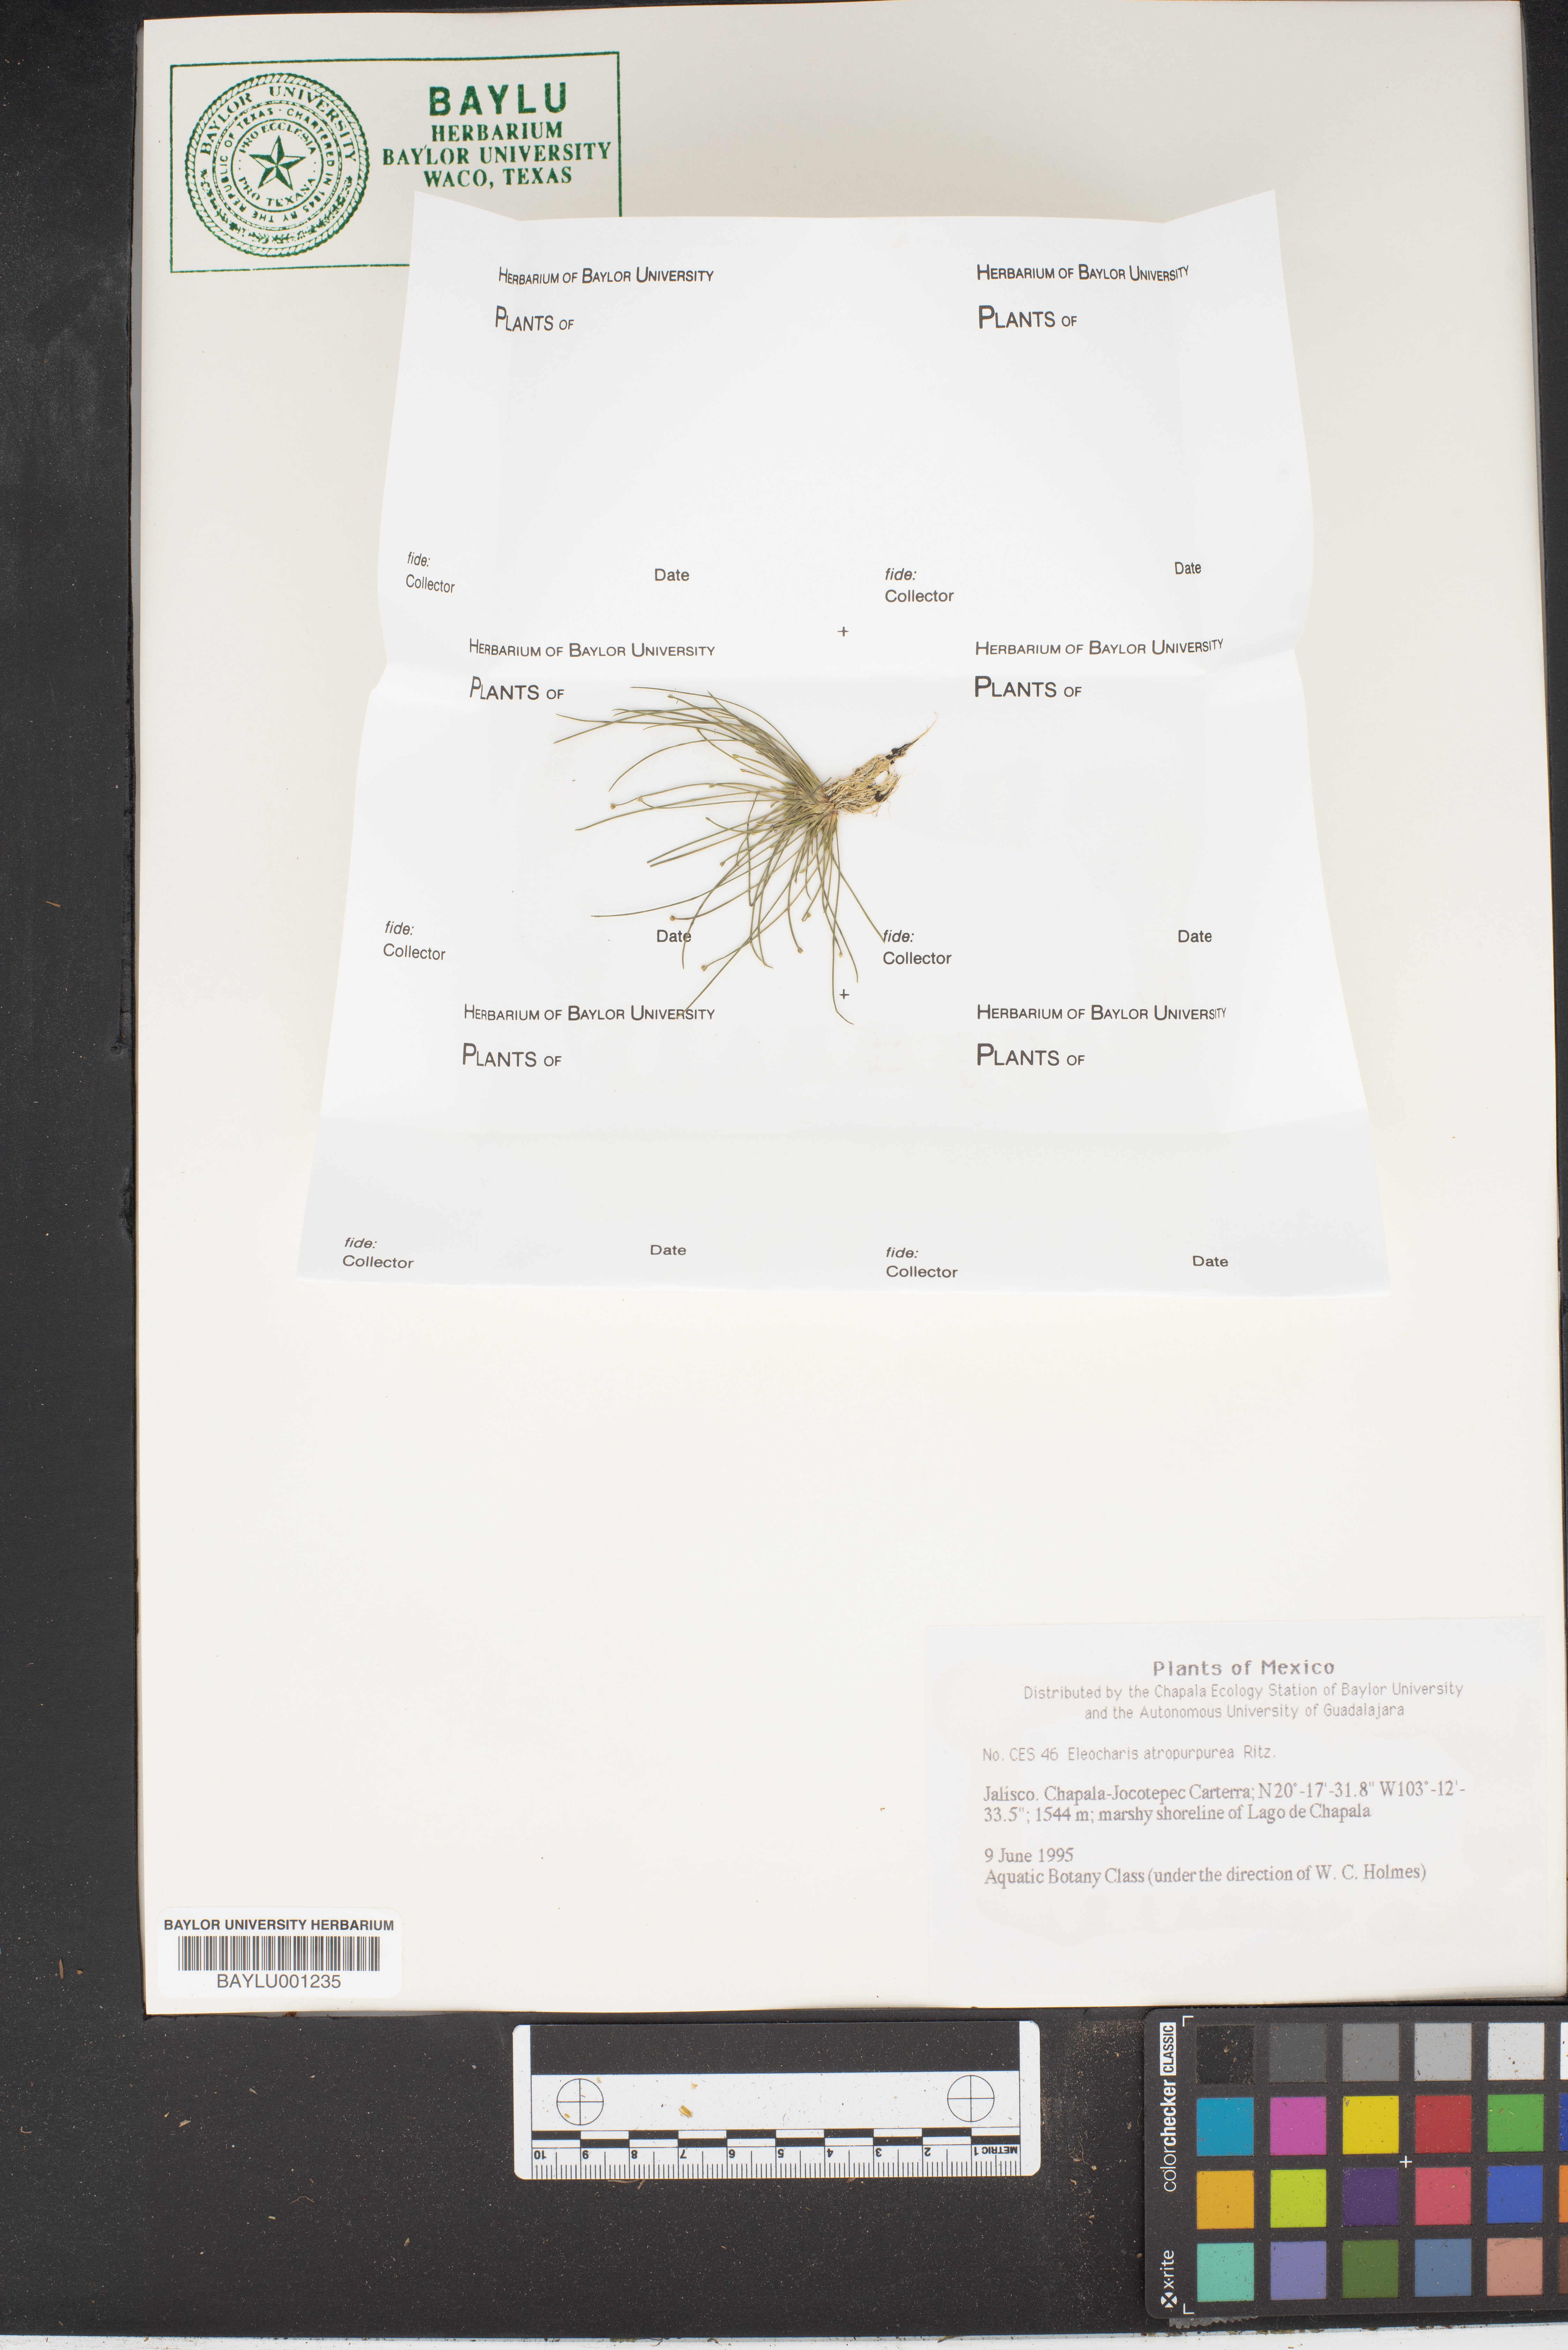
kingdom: Plantae
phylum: Tracheophyta
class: Liliopsida
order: Poales
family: Cyperaceae
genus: Eleocharis
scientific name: Eleocharis atropurpurea
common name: Purple spikerush
